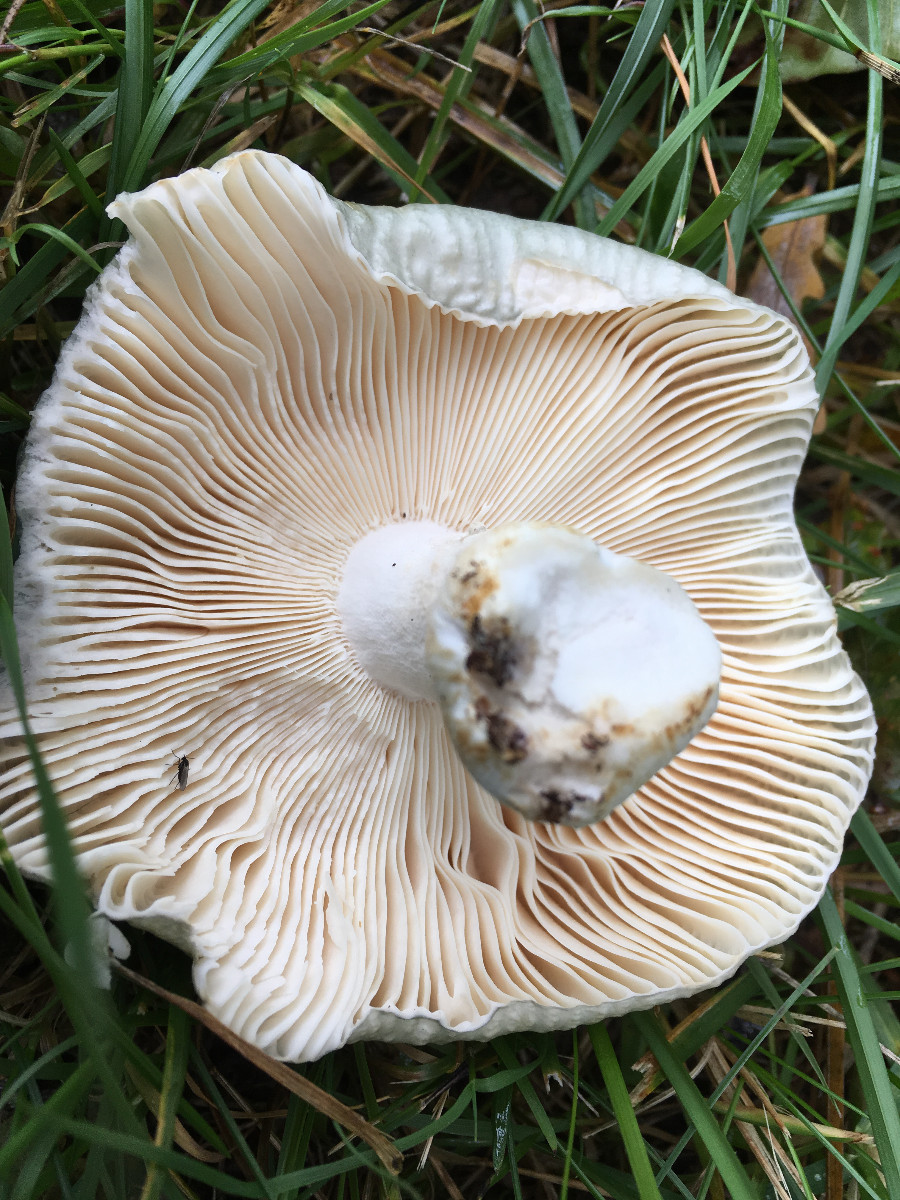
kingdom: Fungi
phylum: Basidiomycota
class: Agaricomycetes
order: Russulales
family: Russulaceae
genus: Russula
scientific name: Russula
